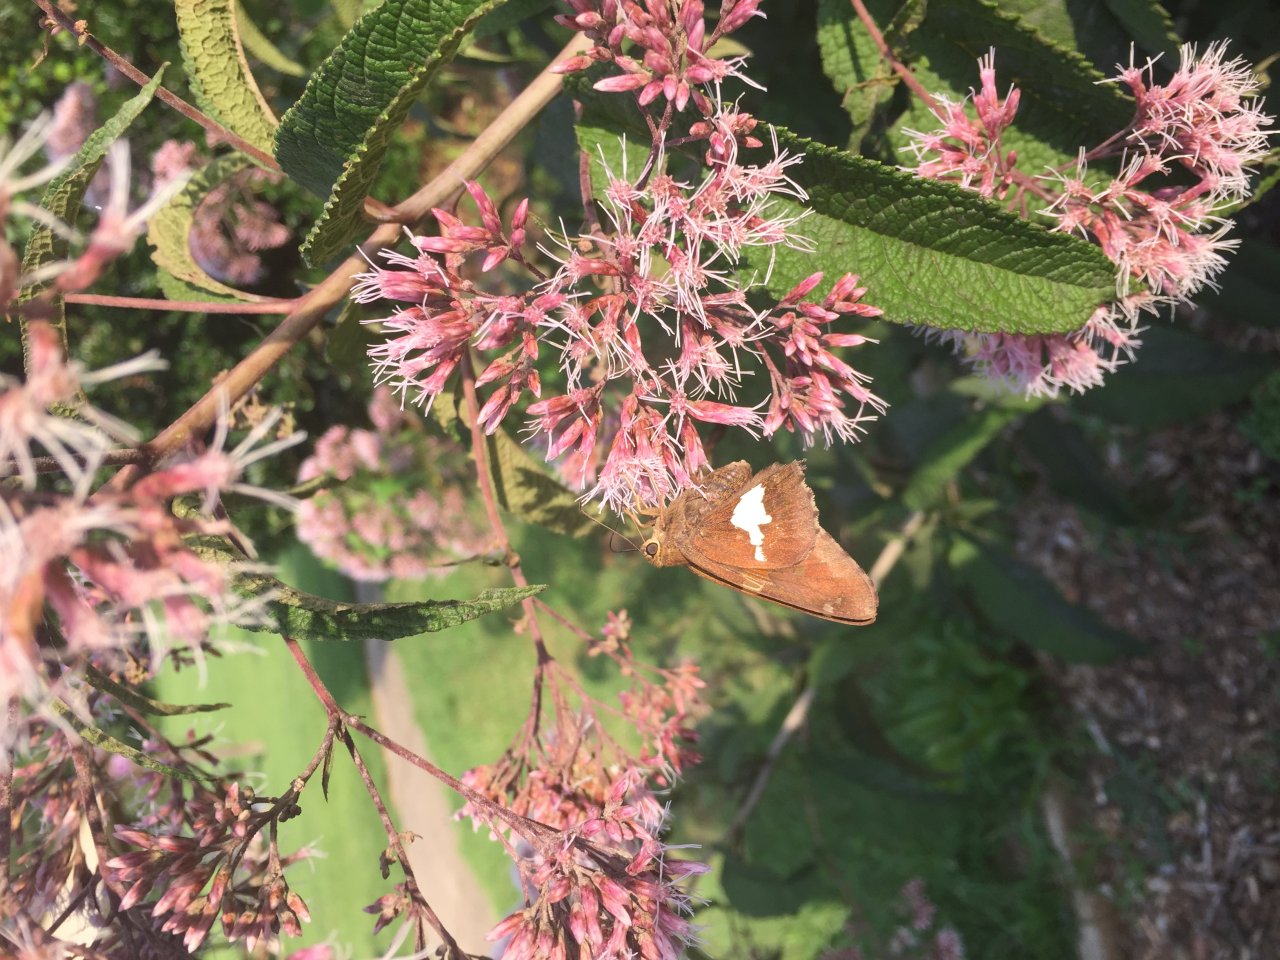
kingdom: Animalia
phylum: Arthropoda
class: Insecta
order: Lepidoptera
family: Hesperiidae
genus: Epargyreus
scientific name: Epargyreus clarus
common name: Silver-spotted Skipper
